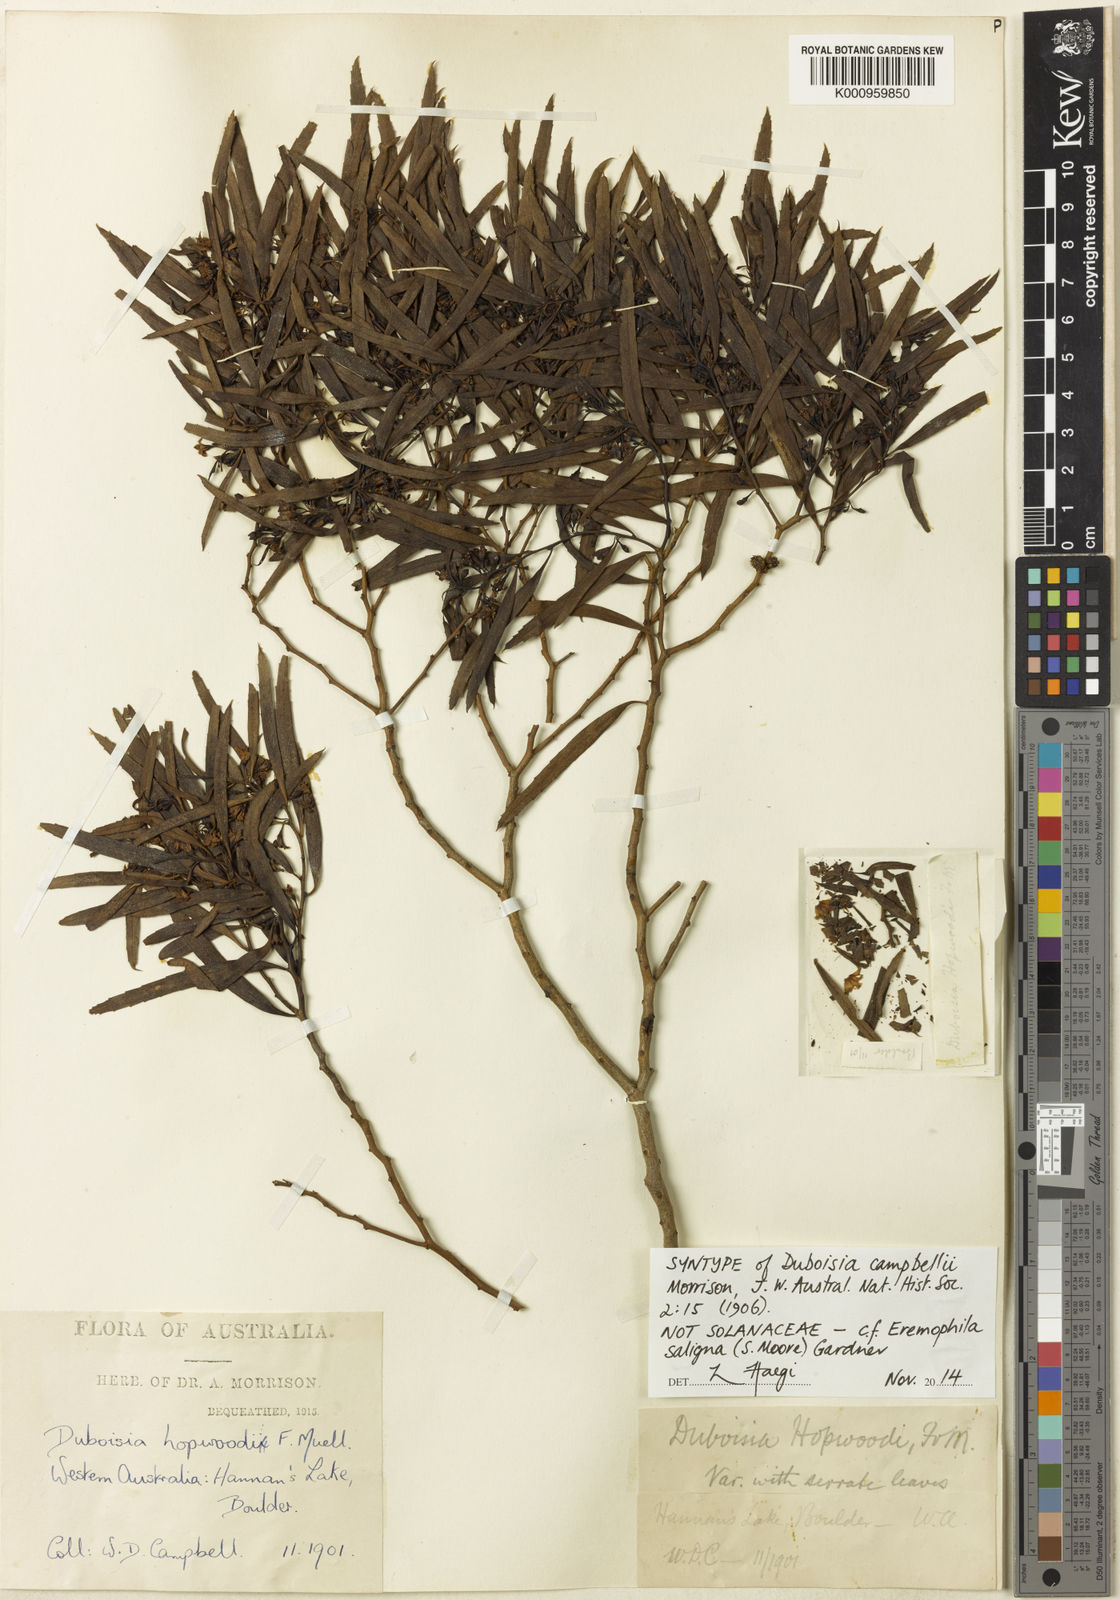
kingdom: Plantae
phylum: Tracheophyta
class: Magnoliopsida
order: Lamiales
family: Scrophulariaceae
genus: Eremophila
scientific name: Eremophila saligna
